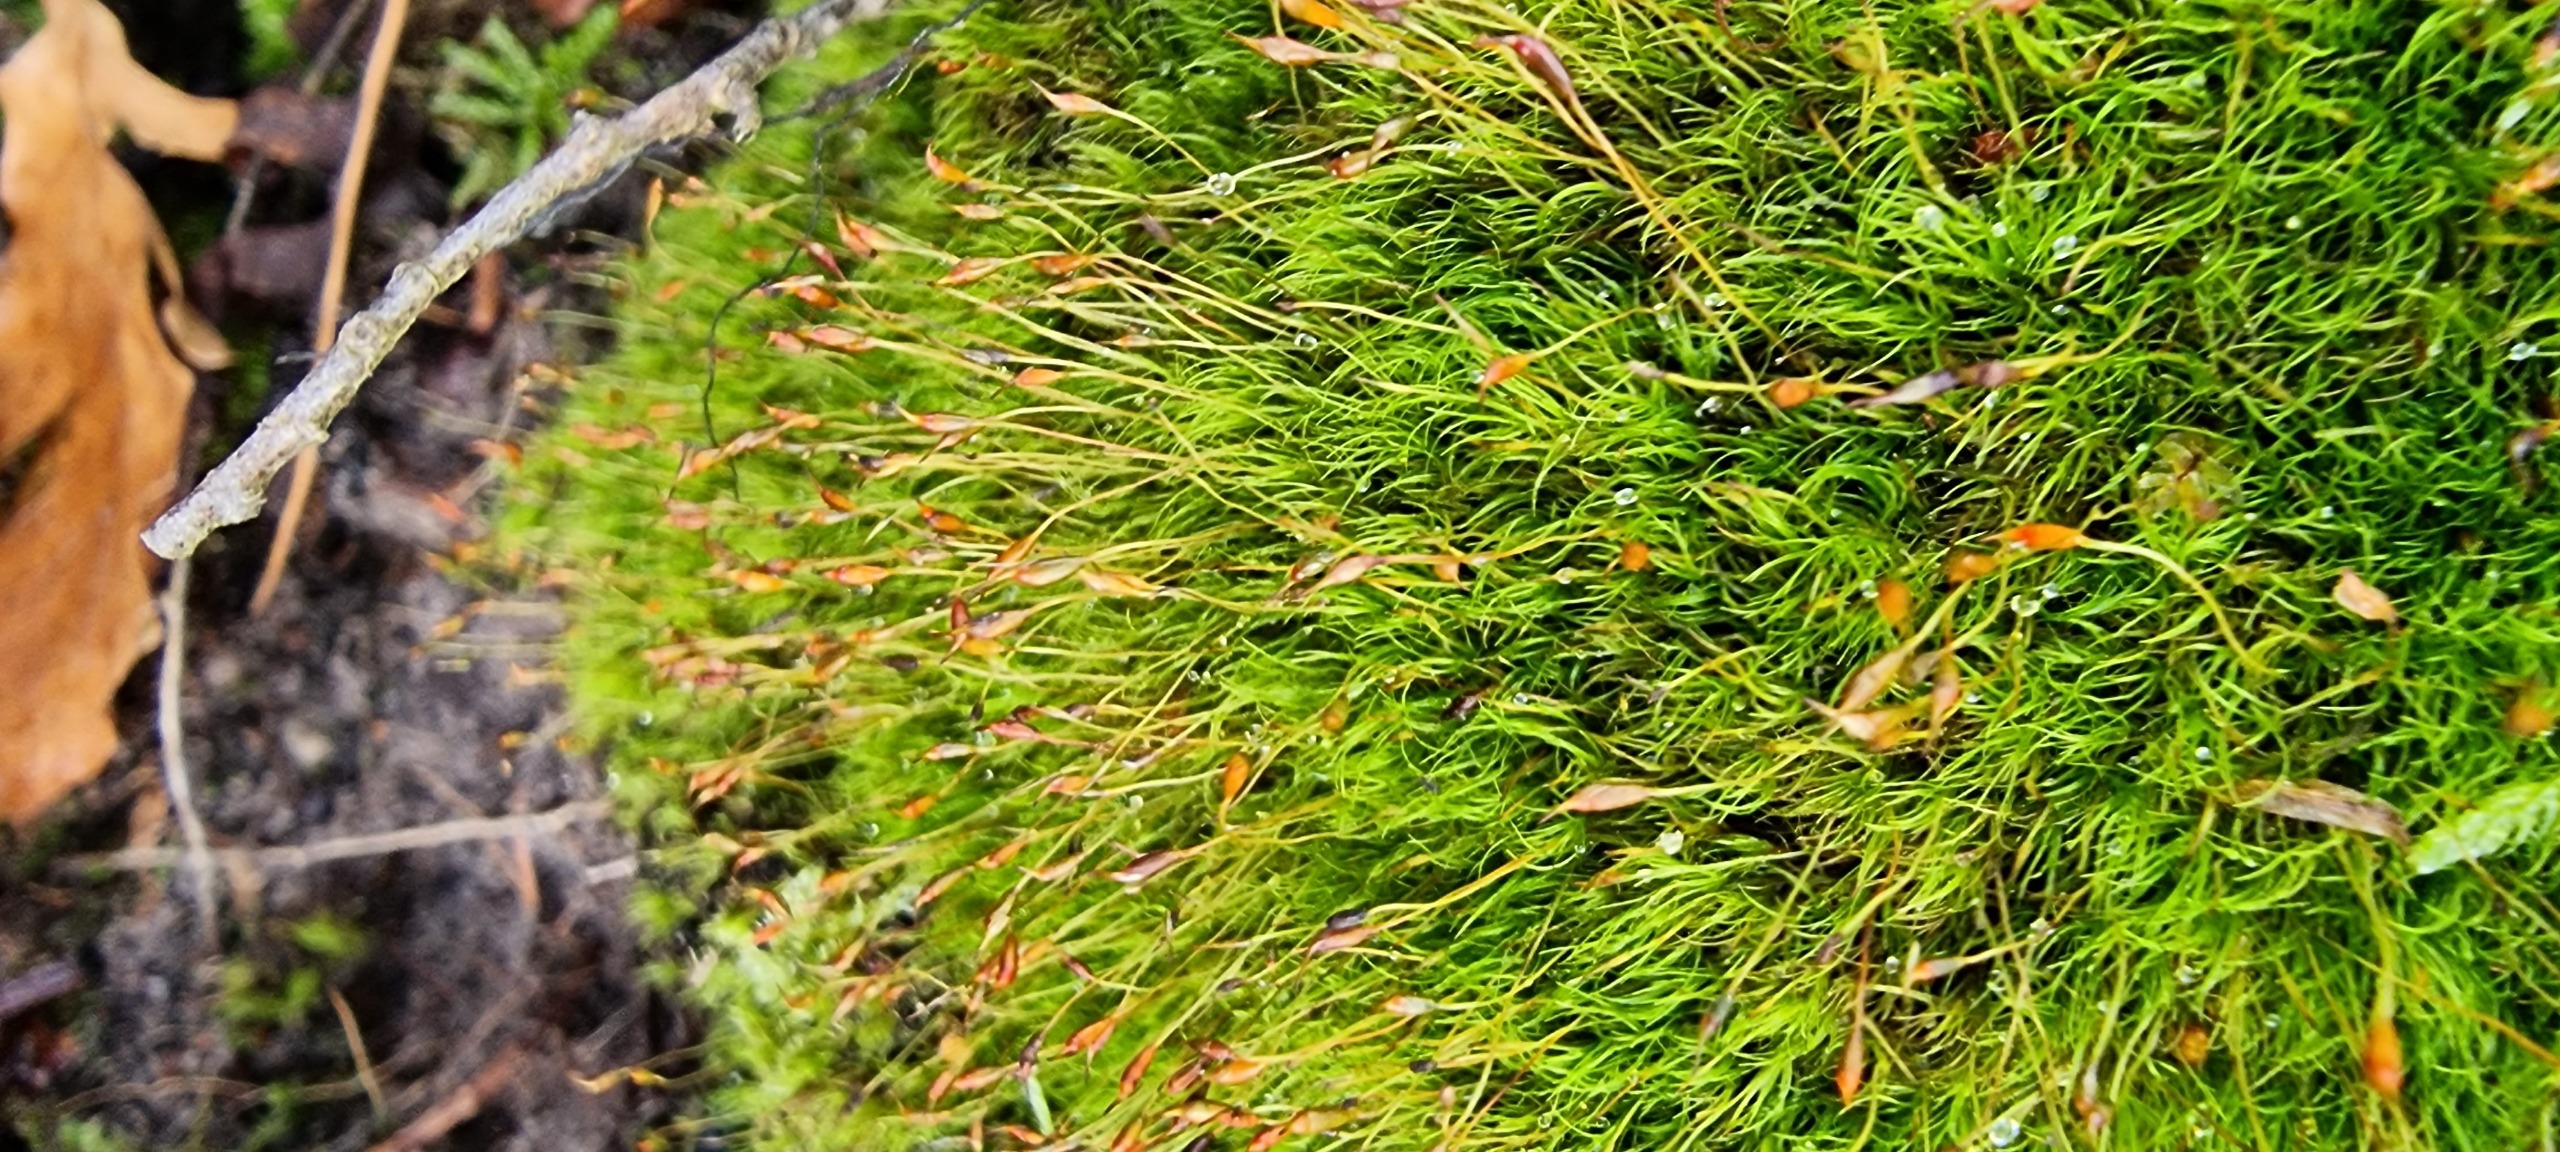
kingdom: Plantae
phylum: Bryophyta
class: Bryopsida
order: Dicranales
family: Dicranellaceae
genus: Dicranella
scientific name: Dicranella heteromalla
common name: Almindelig fløjlsmos
